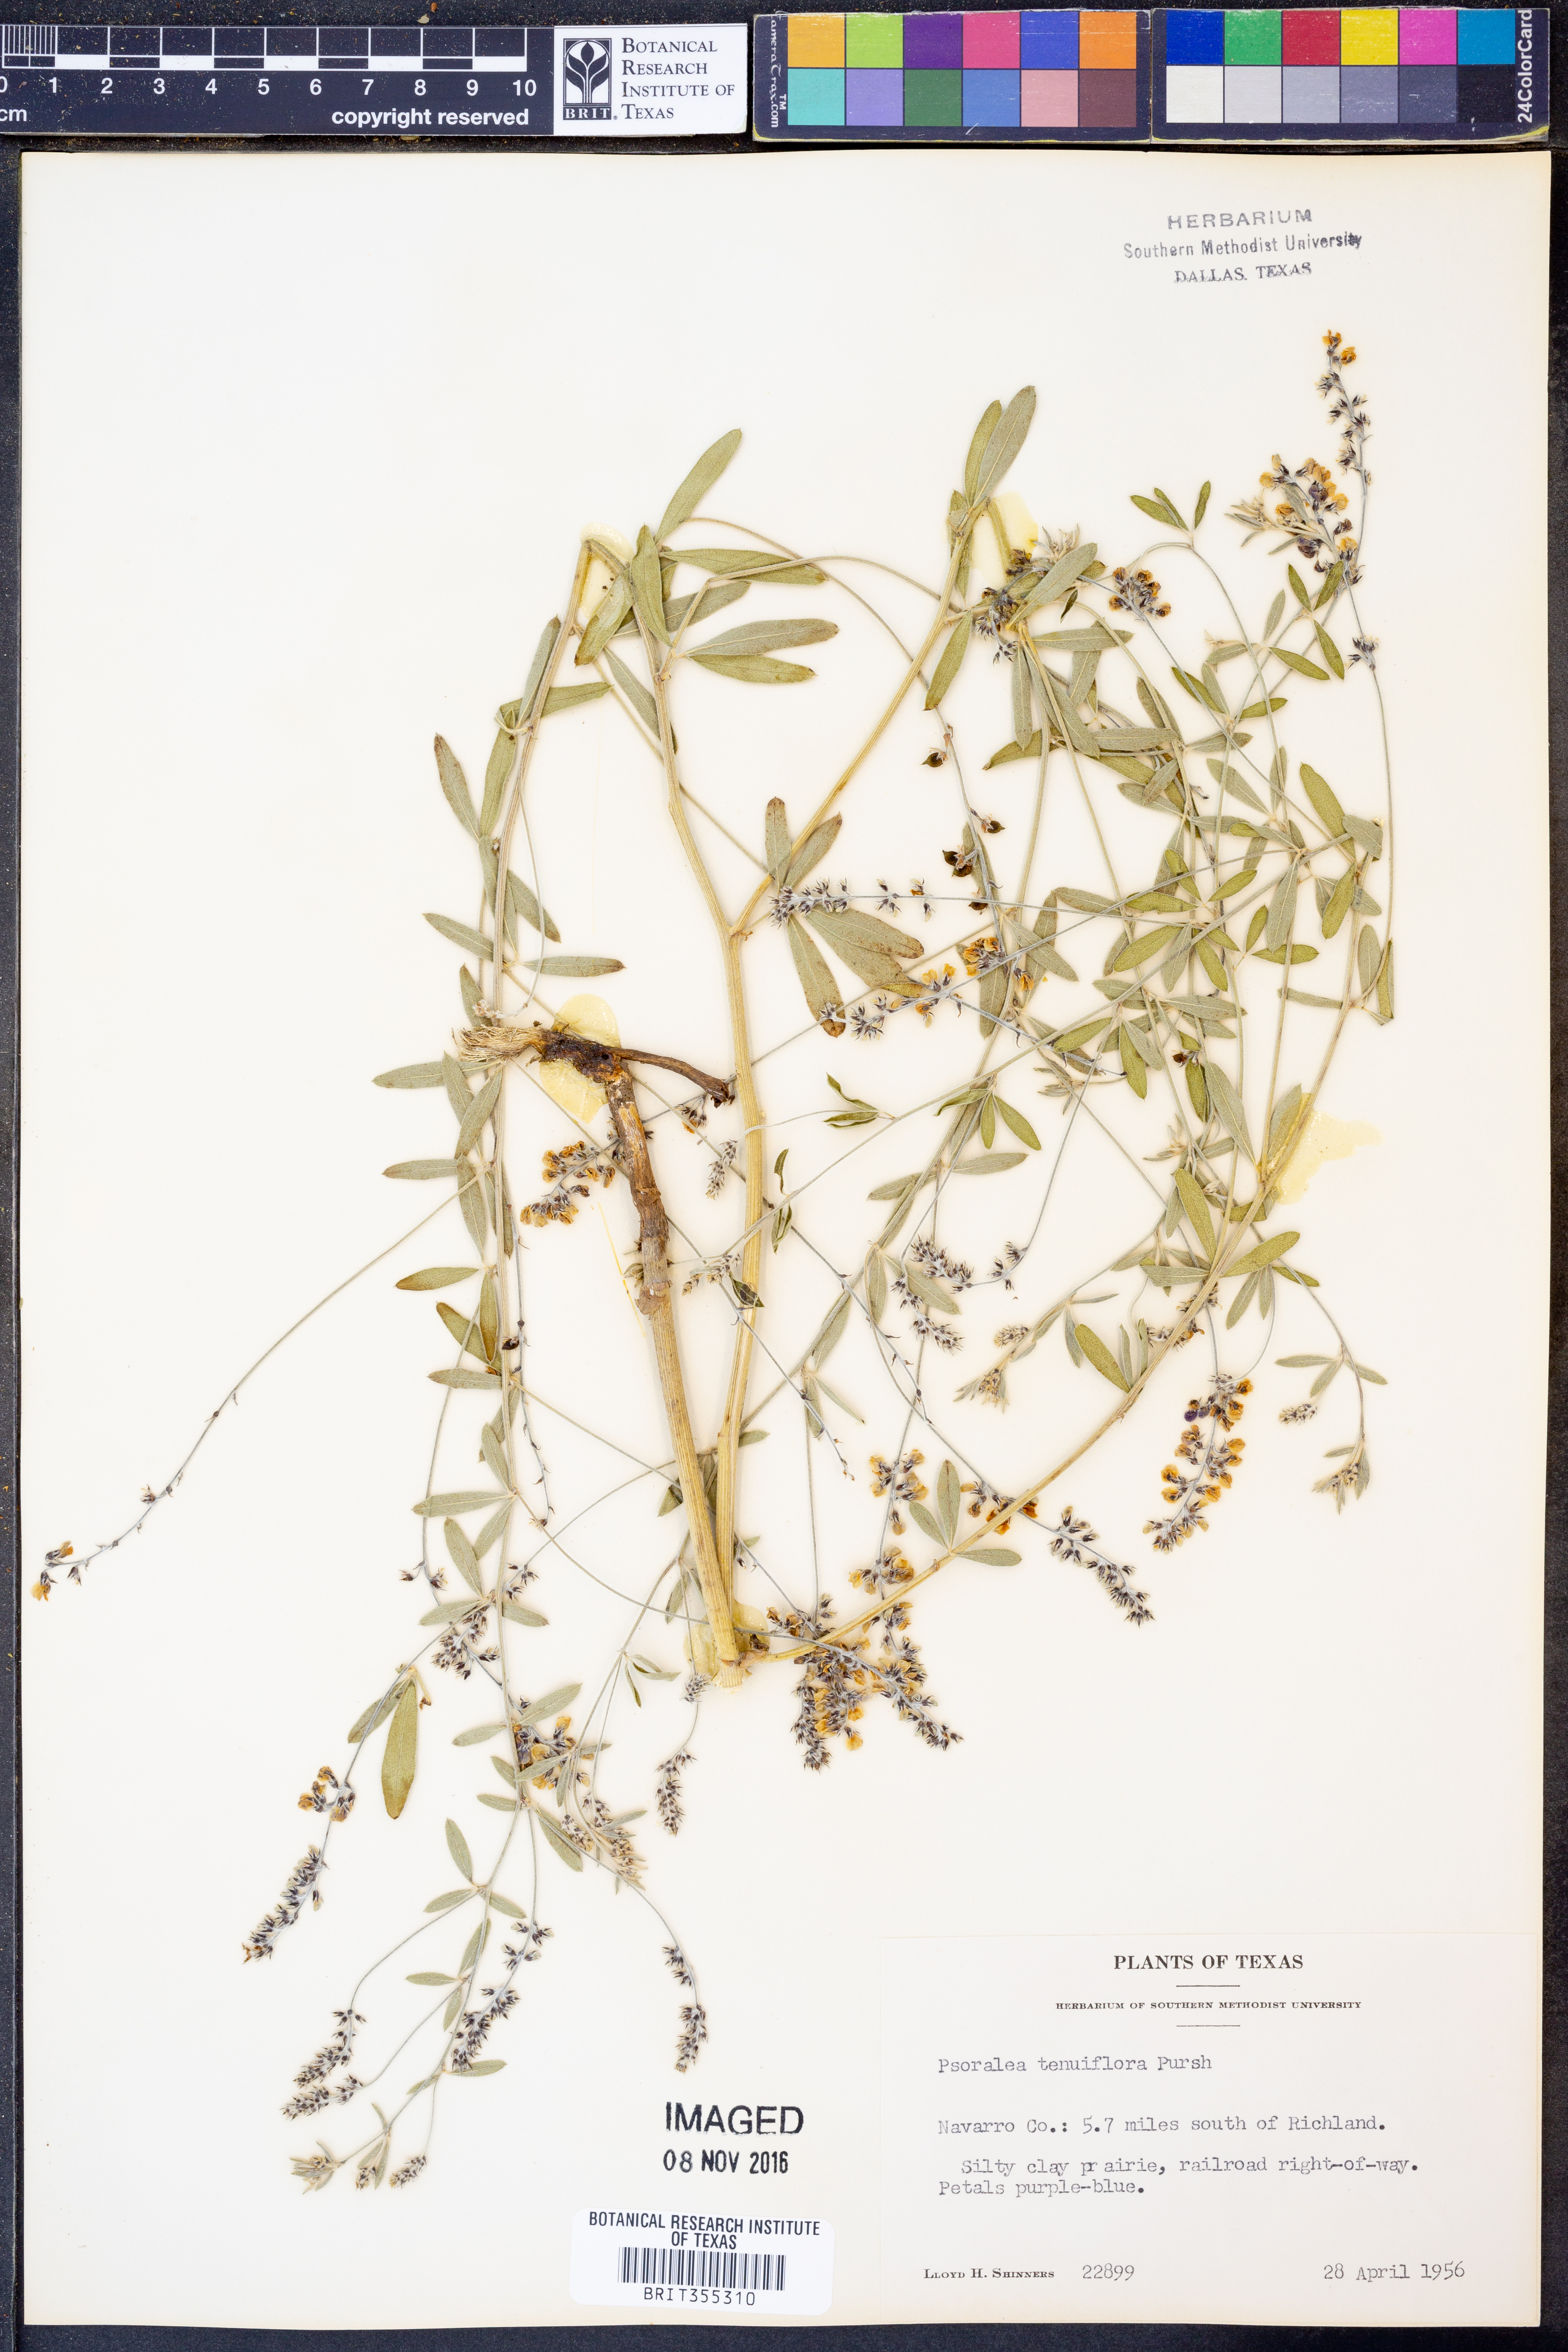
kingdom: Plantae
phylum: Tracheophyta
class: Magnoliopsida
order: Fabales
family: Fabaceae
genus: Pediomelum
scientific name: Pediomelum tenuiflorum
